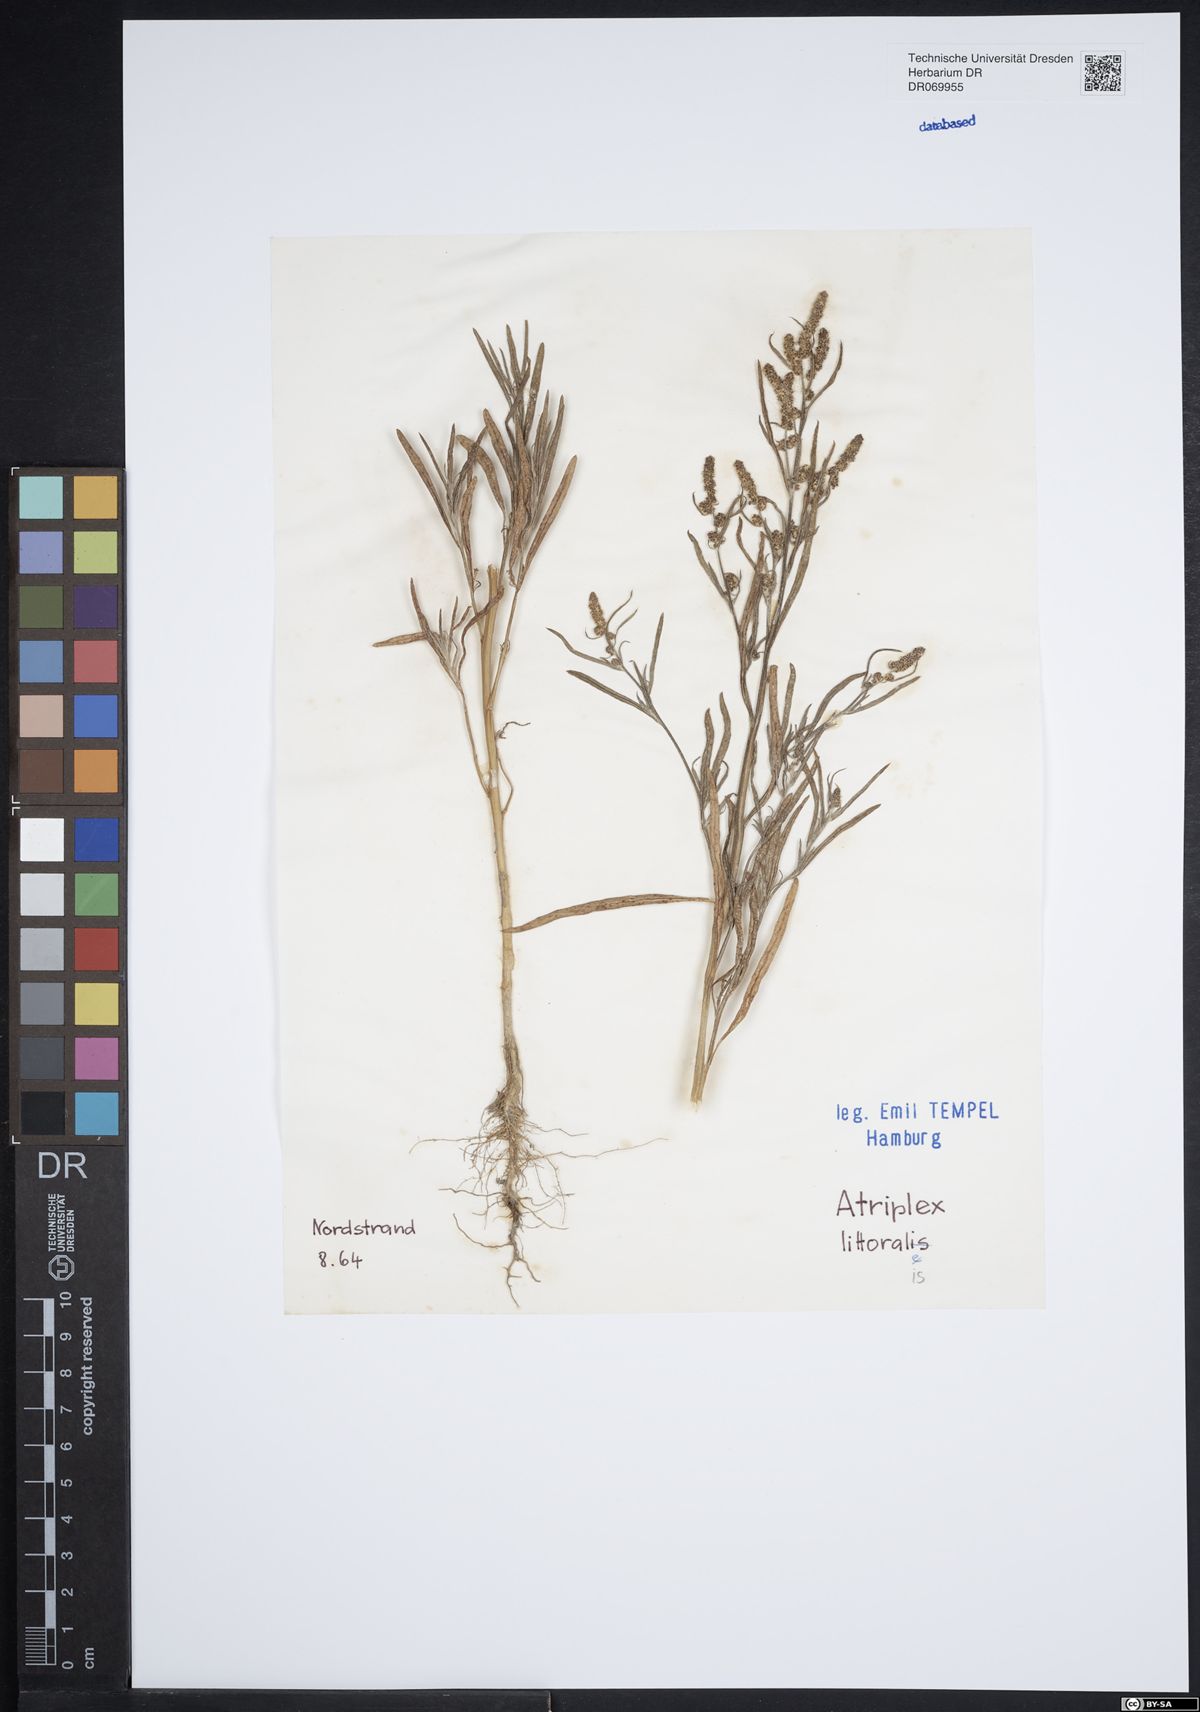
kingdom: Plantae
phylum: Tracheophyta
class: Magnoliopsida
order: Caryophyllales
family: Amaranthaceae
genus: Atriplex
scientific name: Atriplex littoralis
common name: Grass-leaved orache
